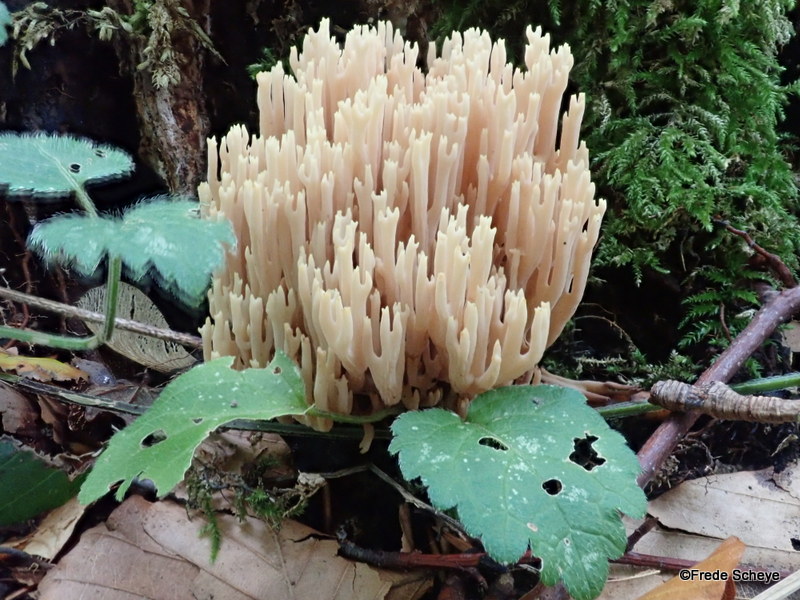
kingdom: Fungi
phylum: Basidiomycota
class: Agaricomycetes
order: Gomphales
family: Gomphaceae
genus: Ramaria
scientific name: Ramaria stricta
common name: rank koralsvamp
